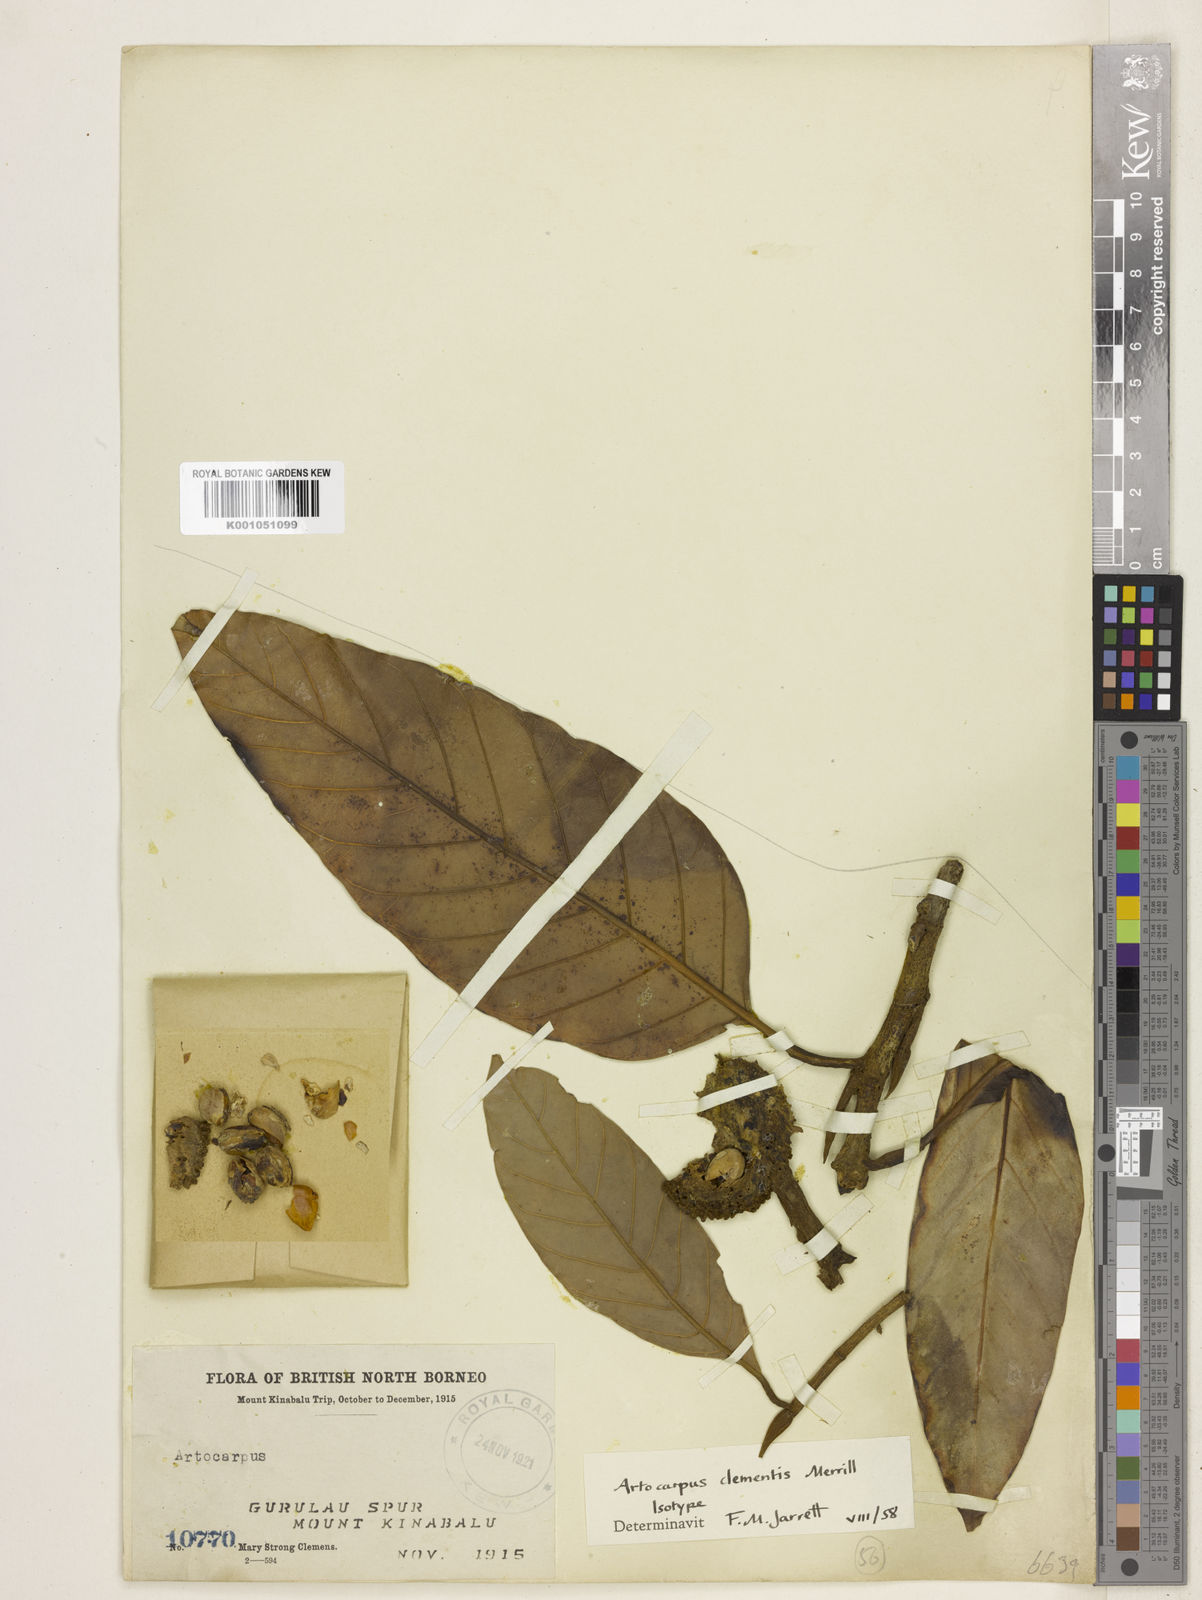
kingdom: Plantae
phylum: Tracheophyta
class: Magnoliopsida
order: Rosales
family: Moraceae
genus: Artocarpus
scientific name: Artocarpus lanceifolius
